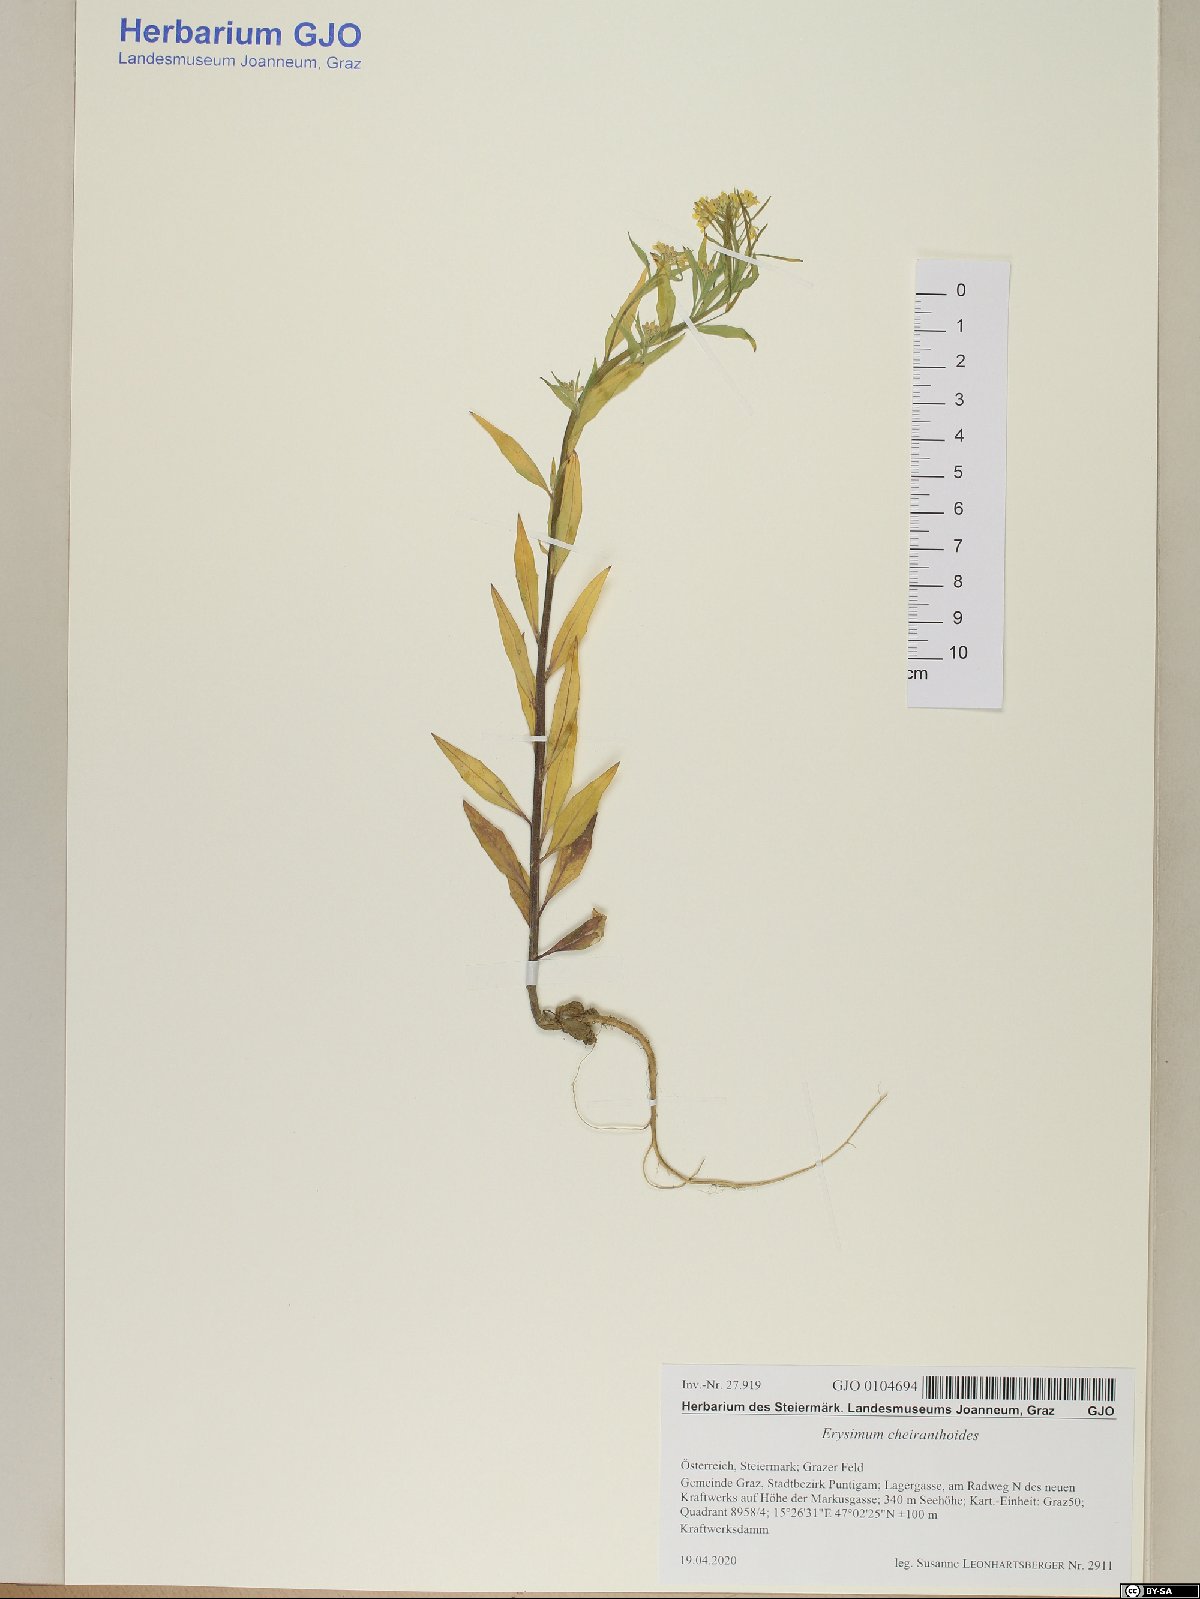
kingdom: Plantae
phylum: Tracheophyta
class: Magnoliopsida
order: Brassicales
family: Brassicaceae
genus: Erysimum
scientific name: Erysimum cheiranthoides
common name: Treacle mustard
